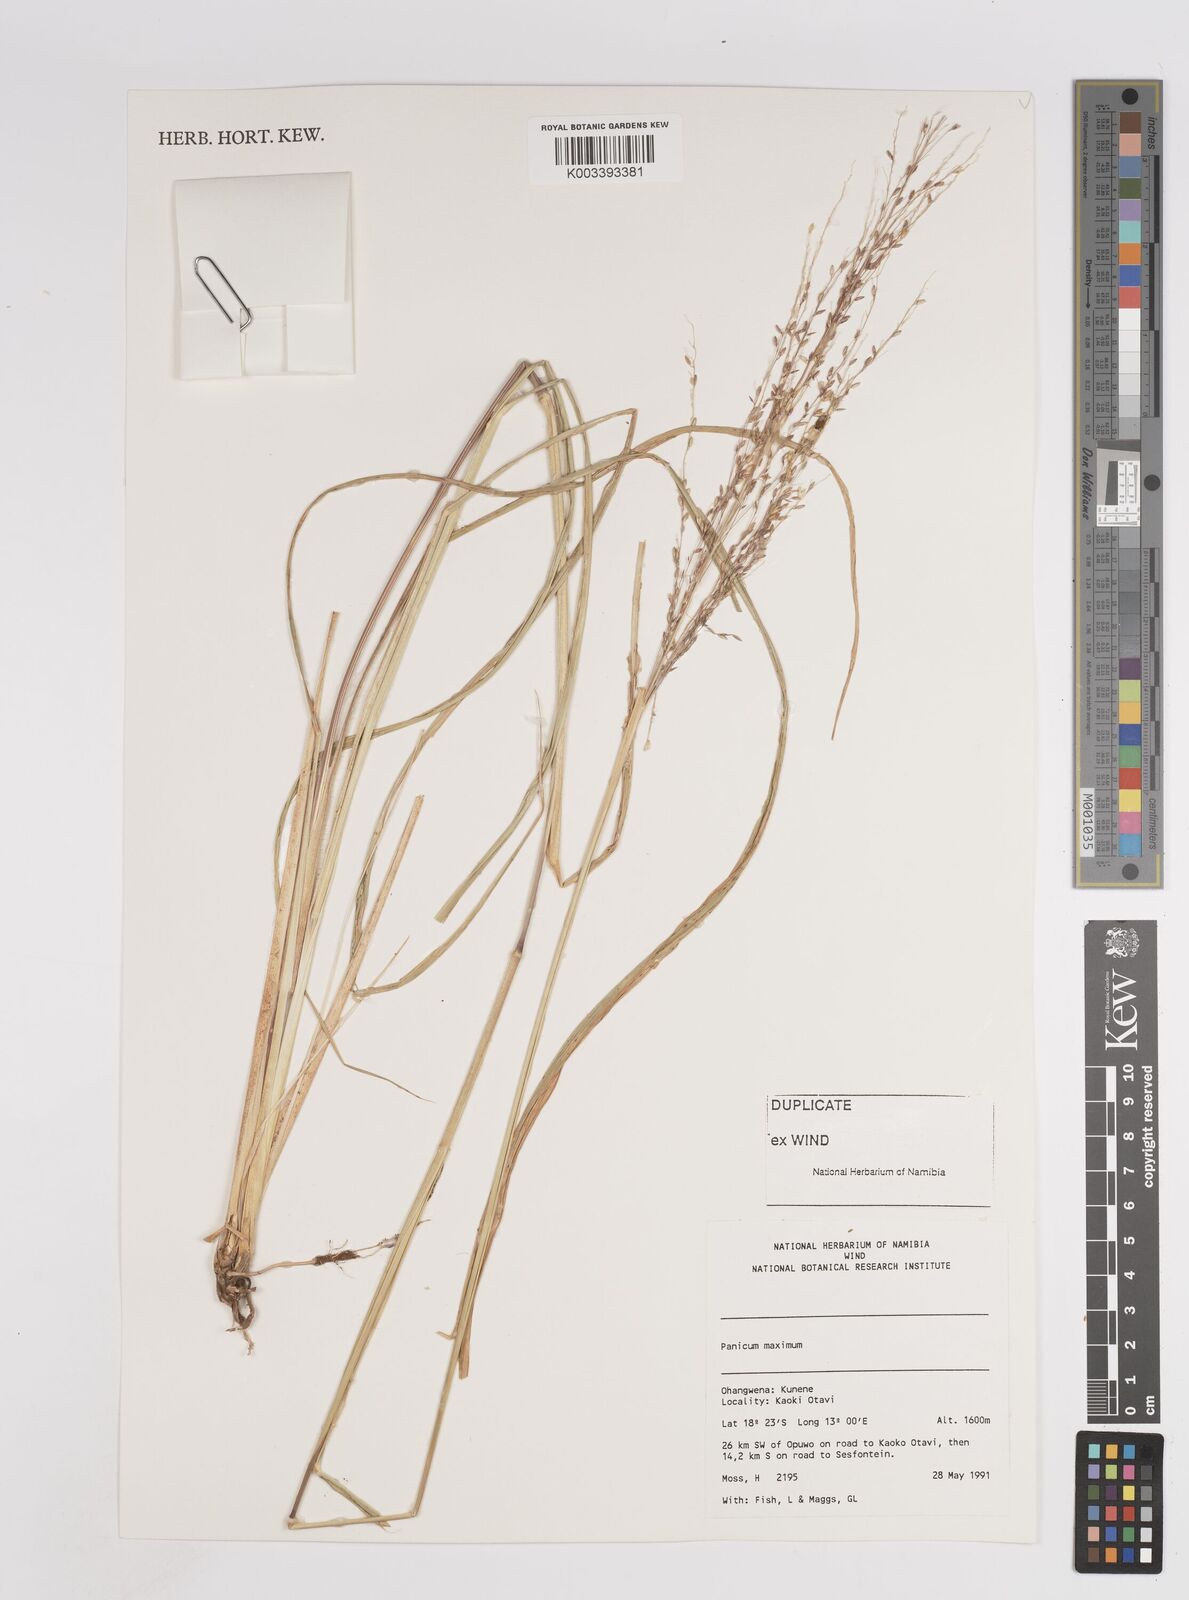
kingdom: Plantae
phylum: Tracheophyta
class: Liliopsida
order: Poales
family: Poaceae
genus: Megathyrsus
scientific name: Megathyrsus maximus
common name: Guineagrass
